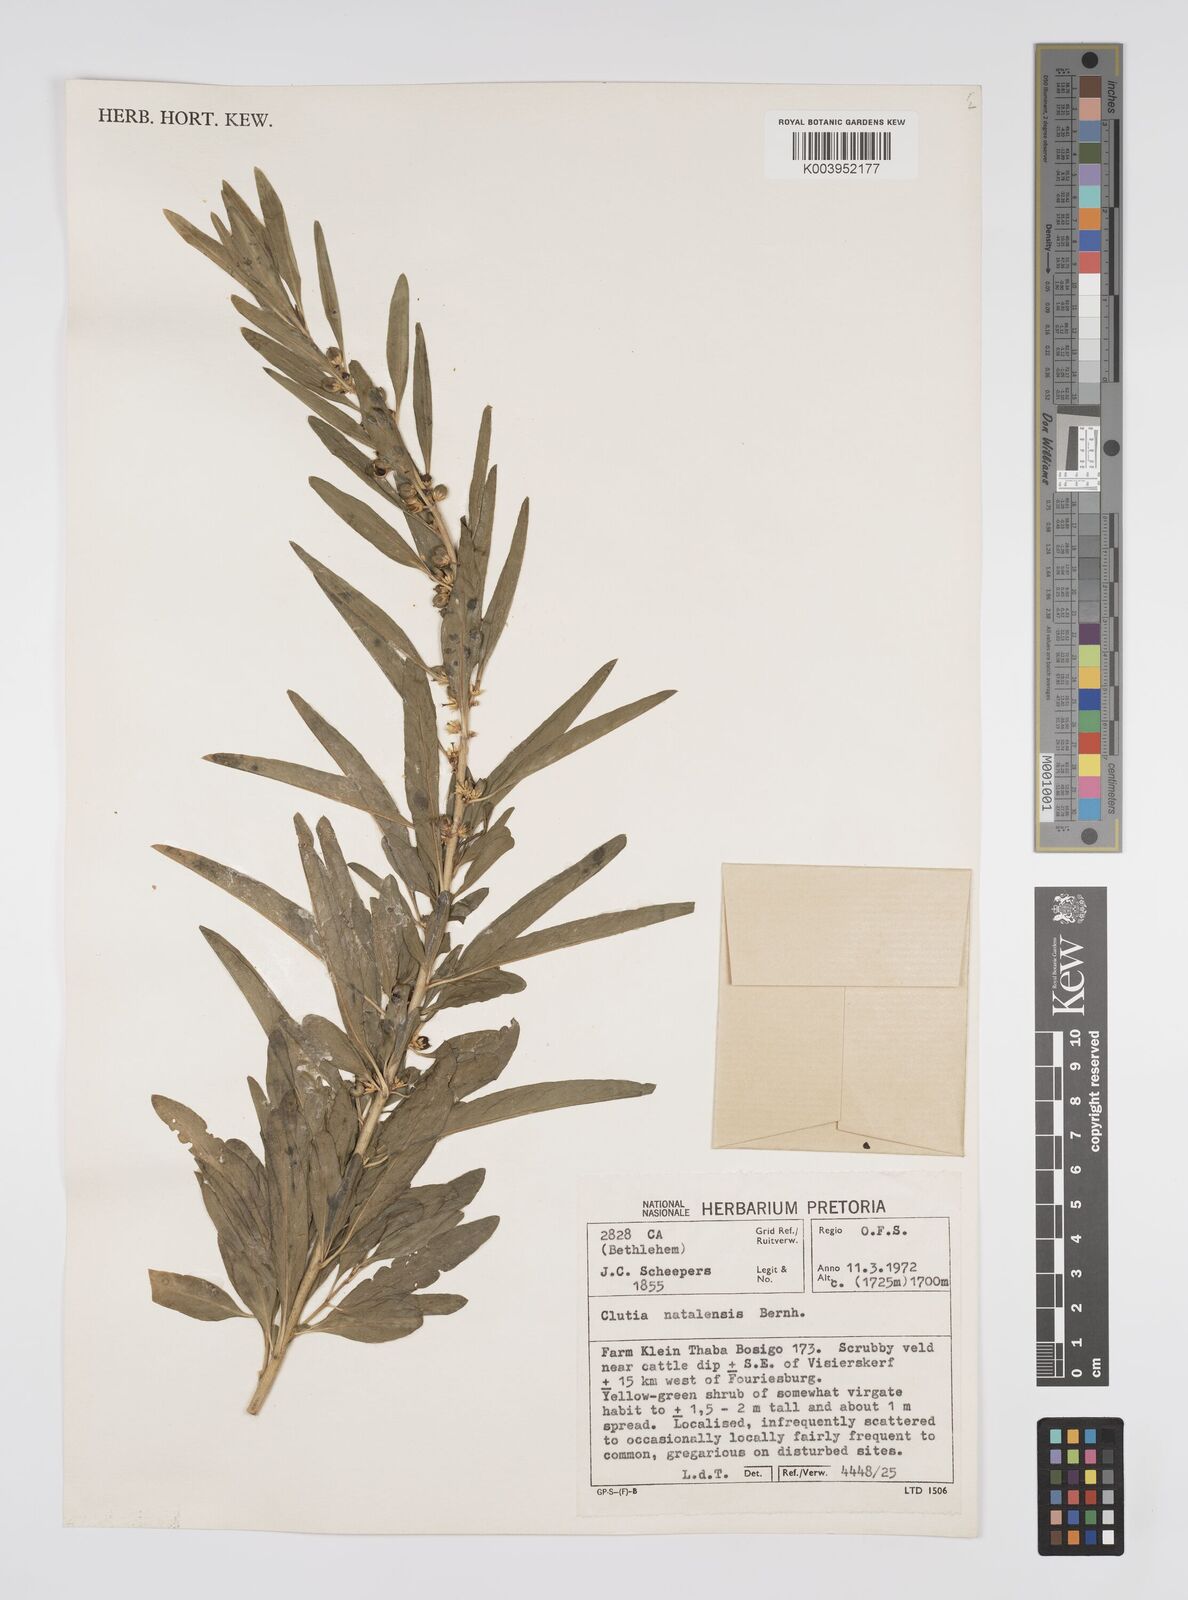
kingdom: Plantae
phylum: Tracheophyta
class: Magnoliopsida
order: Malpighiales
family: Peraceae
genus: Clutia
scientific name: Clutia natalensis
